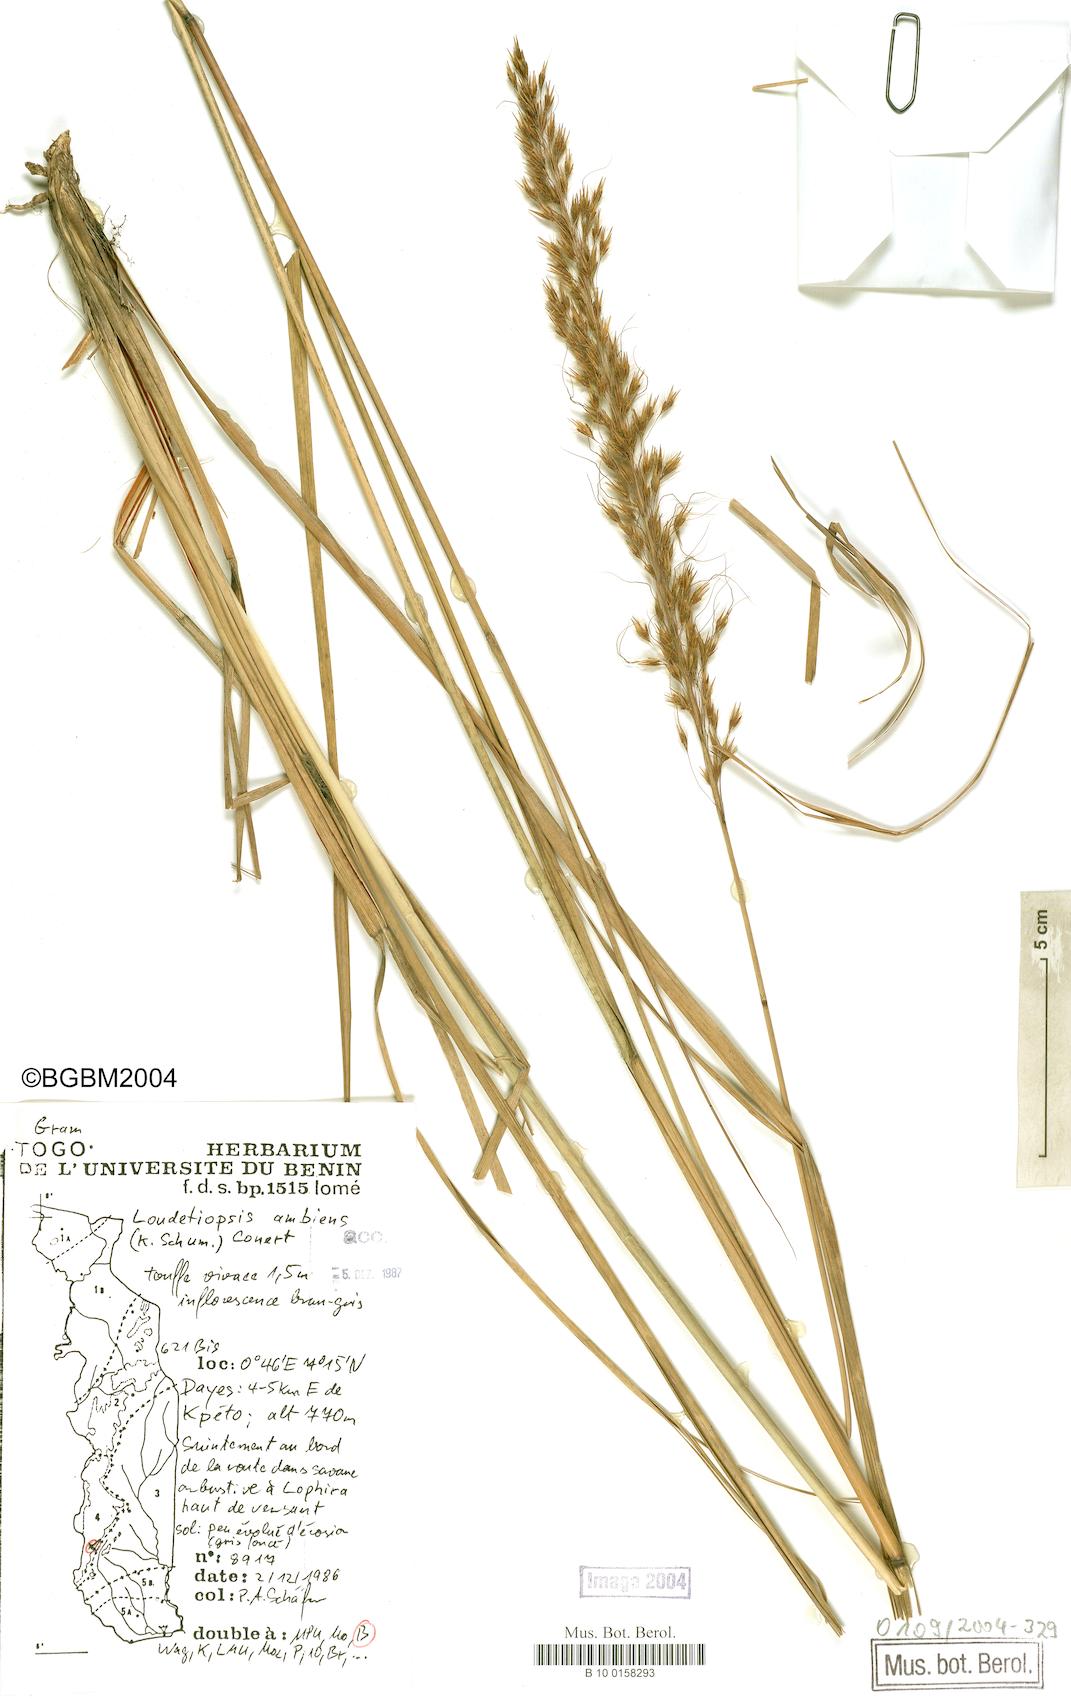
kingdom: Plantae
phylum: Tracheophyta
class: Liliopsida
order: Poales
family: Poaceae
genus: Loudetiopsis
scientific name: Loudetiopsis ambiens
